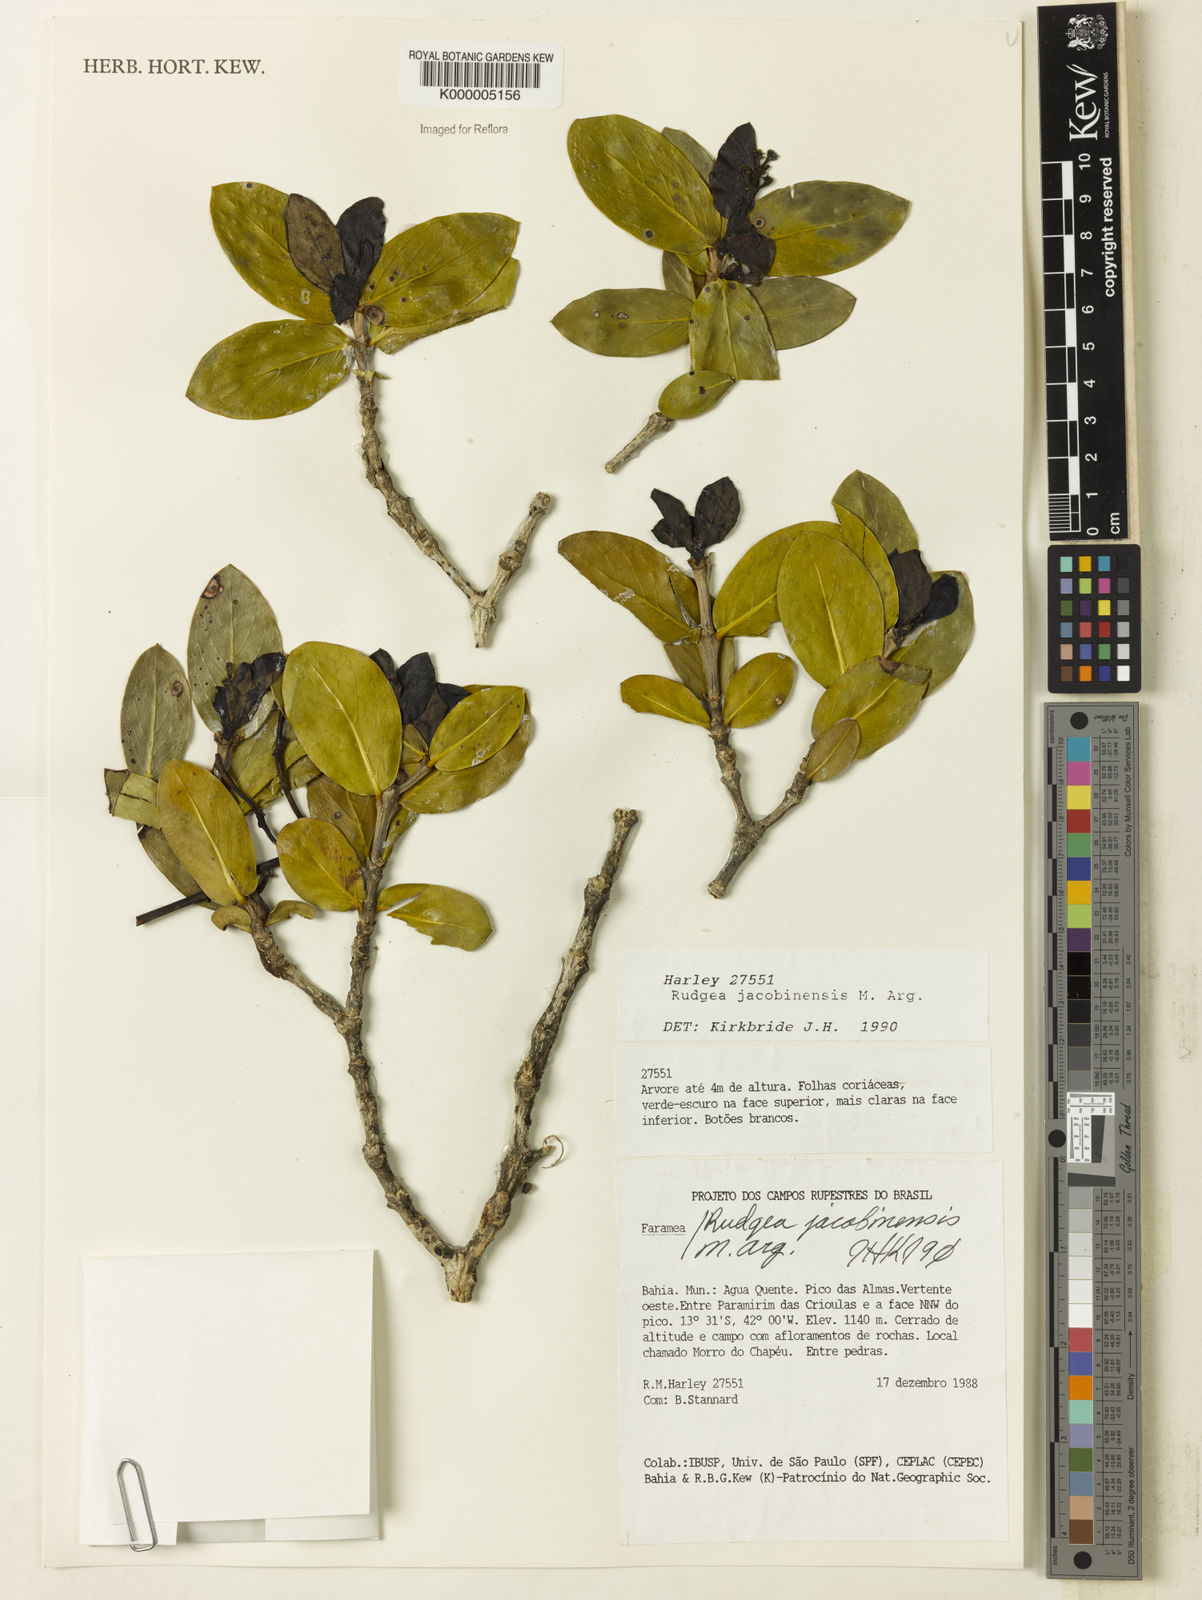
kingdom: Plantae
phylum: Tracheophyta
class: Magnoliopsida
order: Gentianales
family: Rubiaceae
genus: Rudgea
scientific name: Rudgea irregularis
